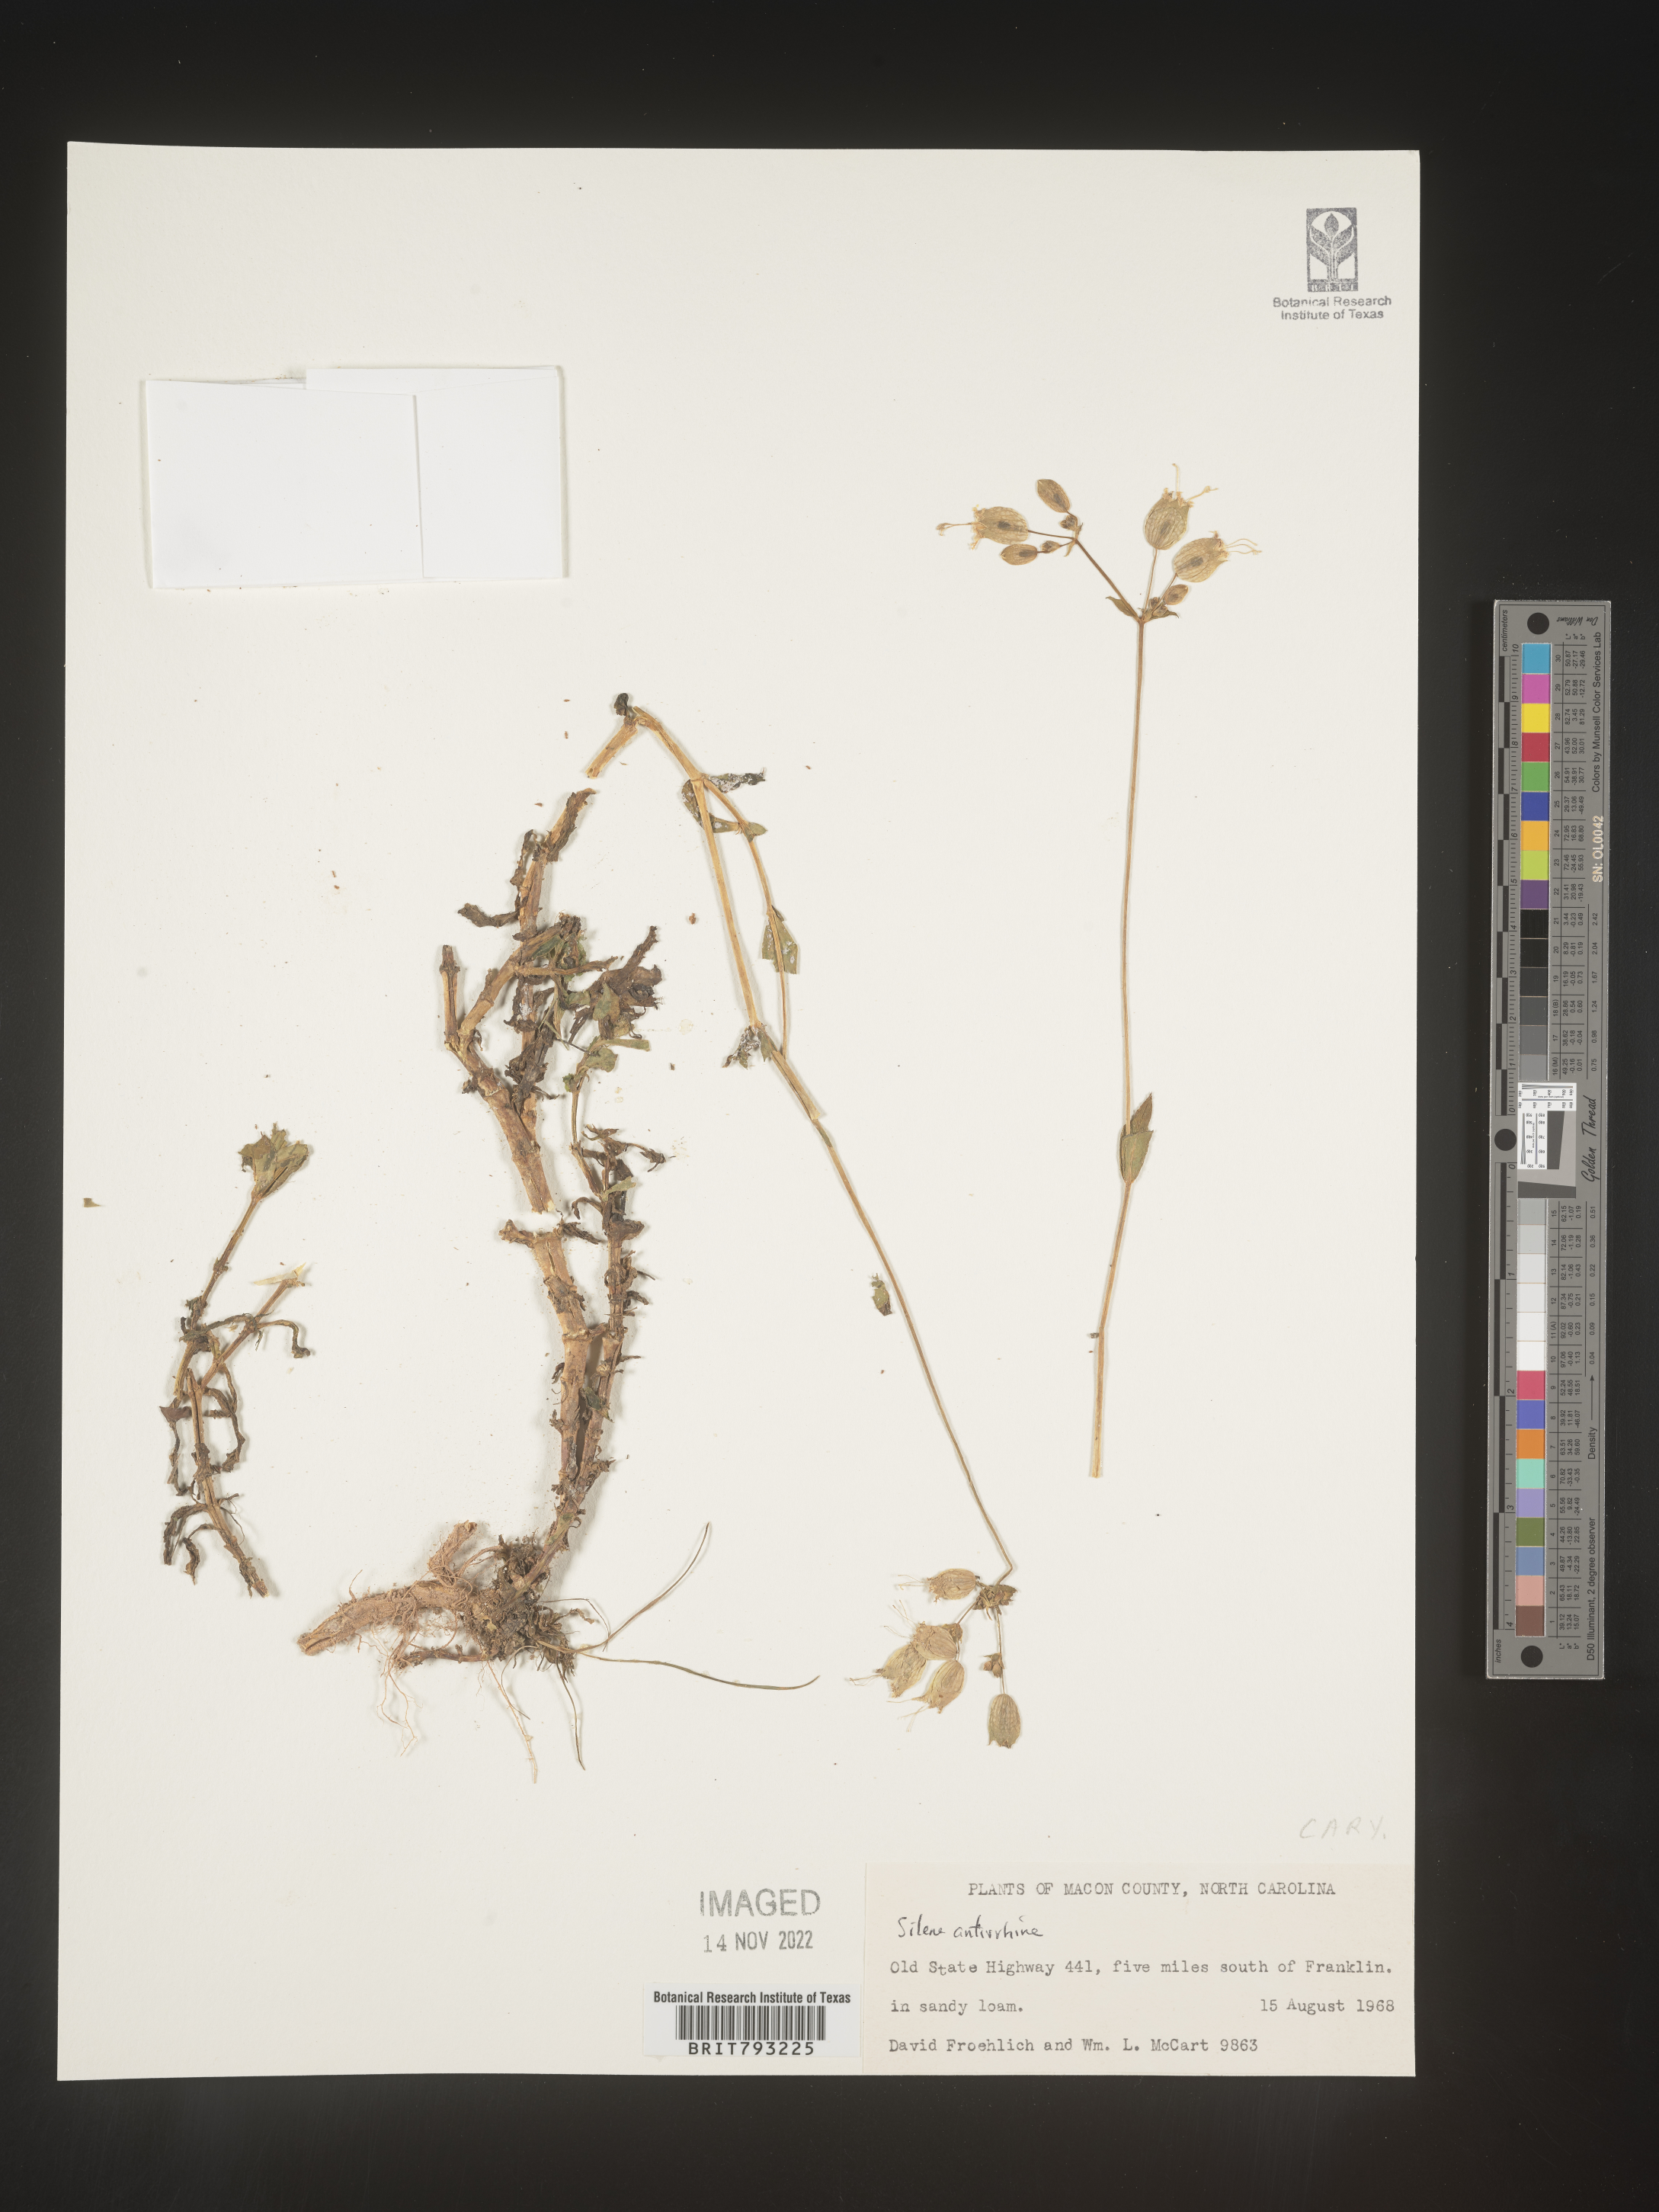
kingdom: Plantae
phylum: Tracheophyta
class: Magnoliopsida
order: Caryophyllales
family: Caryophyllaceae
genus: Silene
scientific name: Silene antirrhina
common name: Sleepy catchfly
